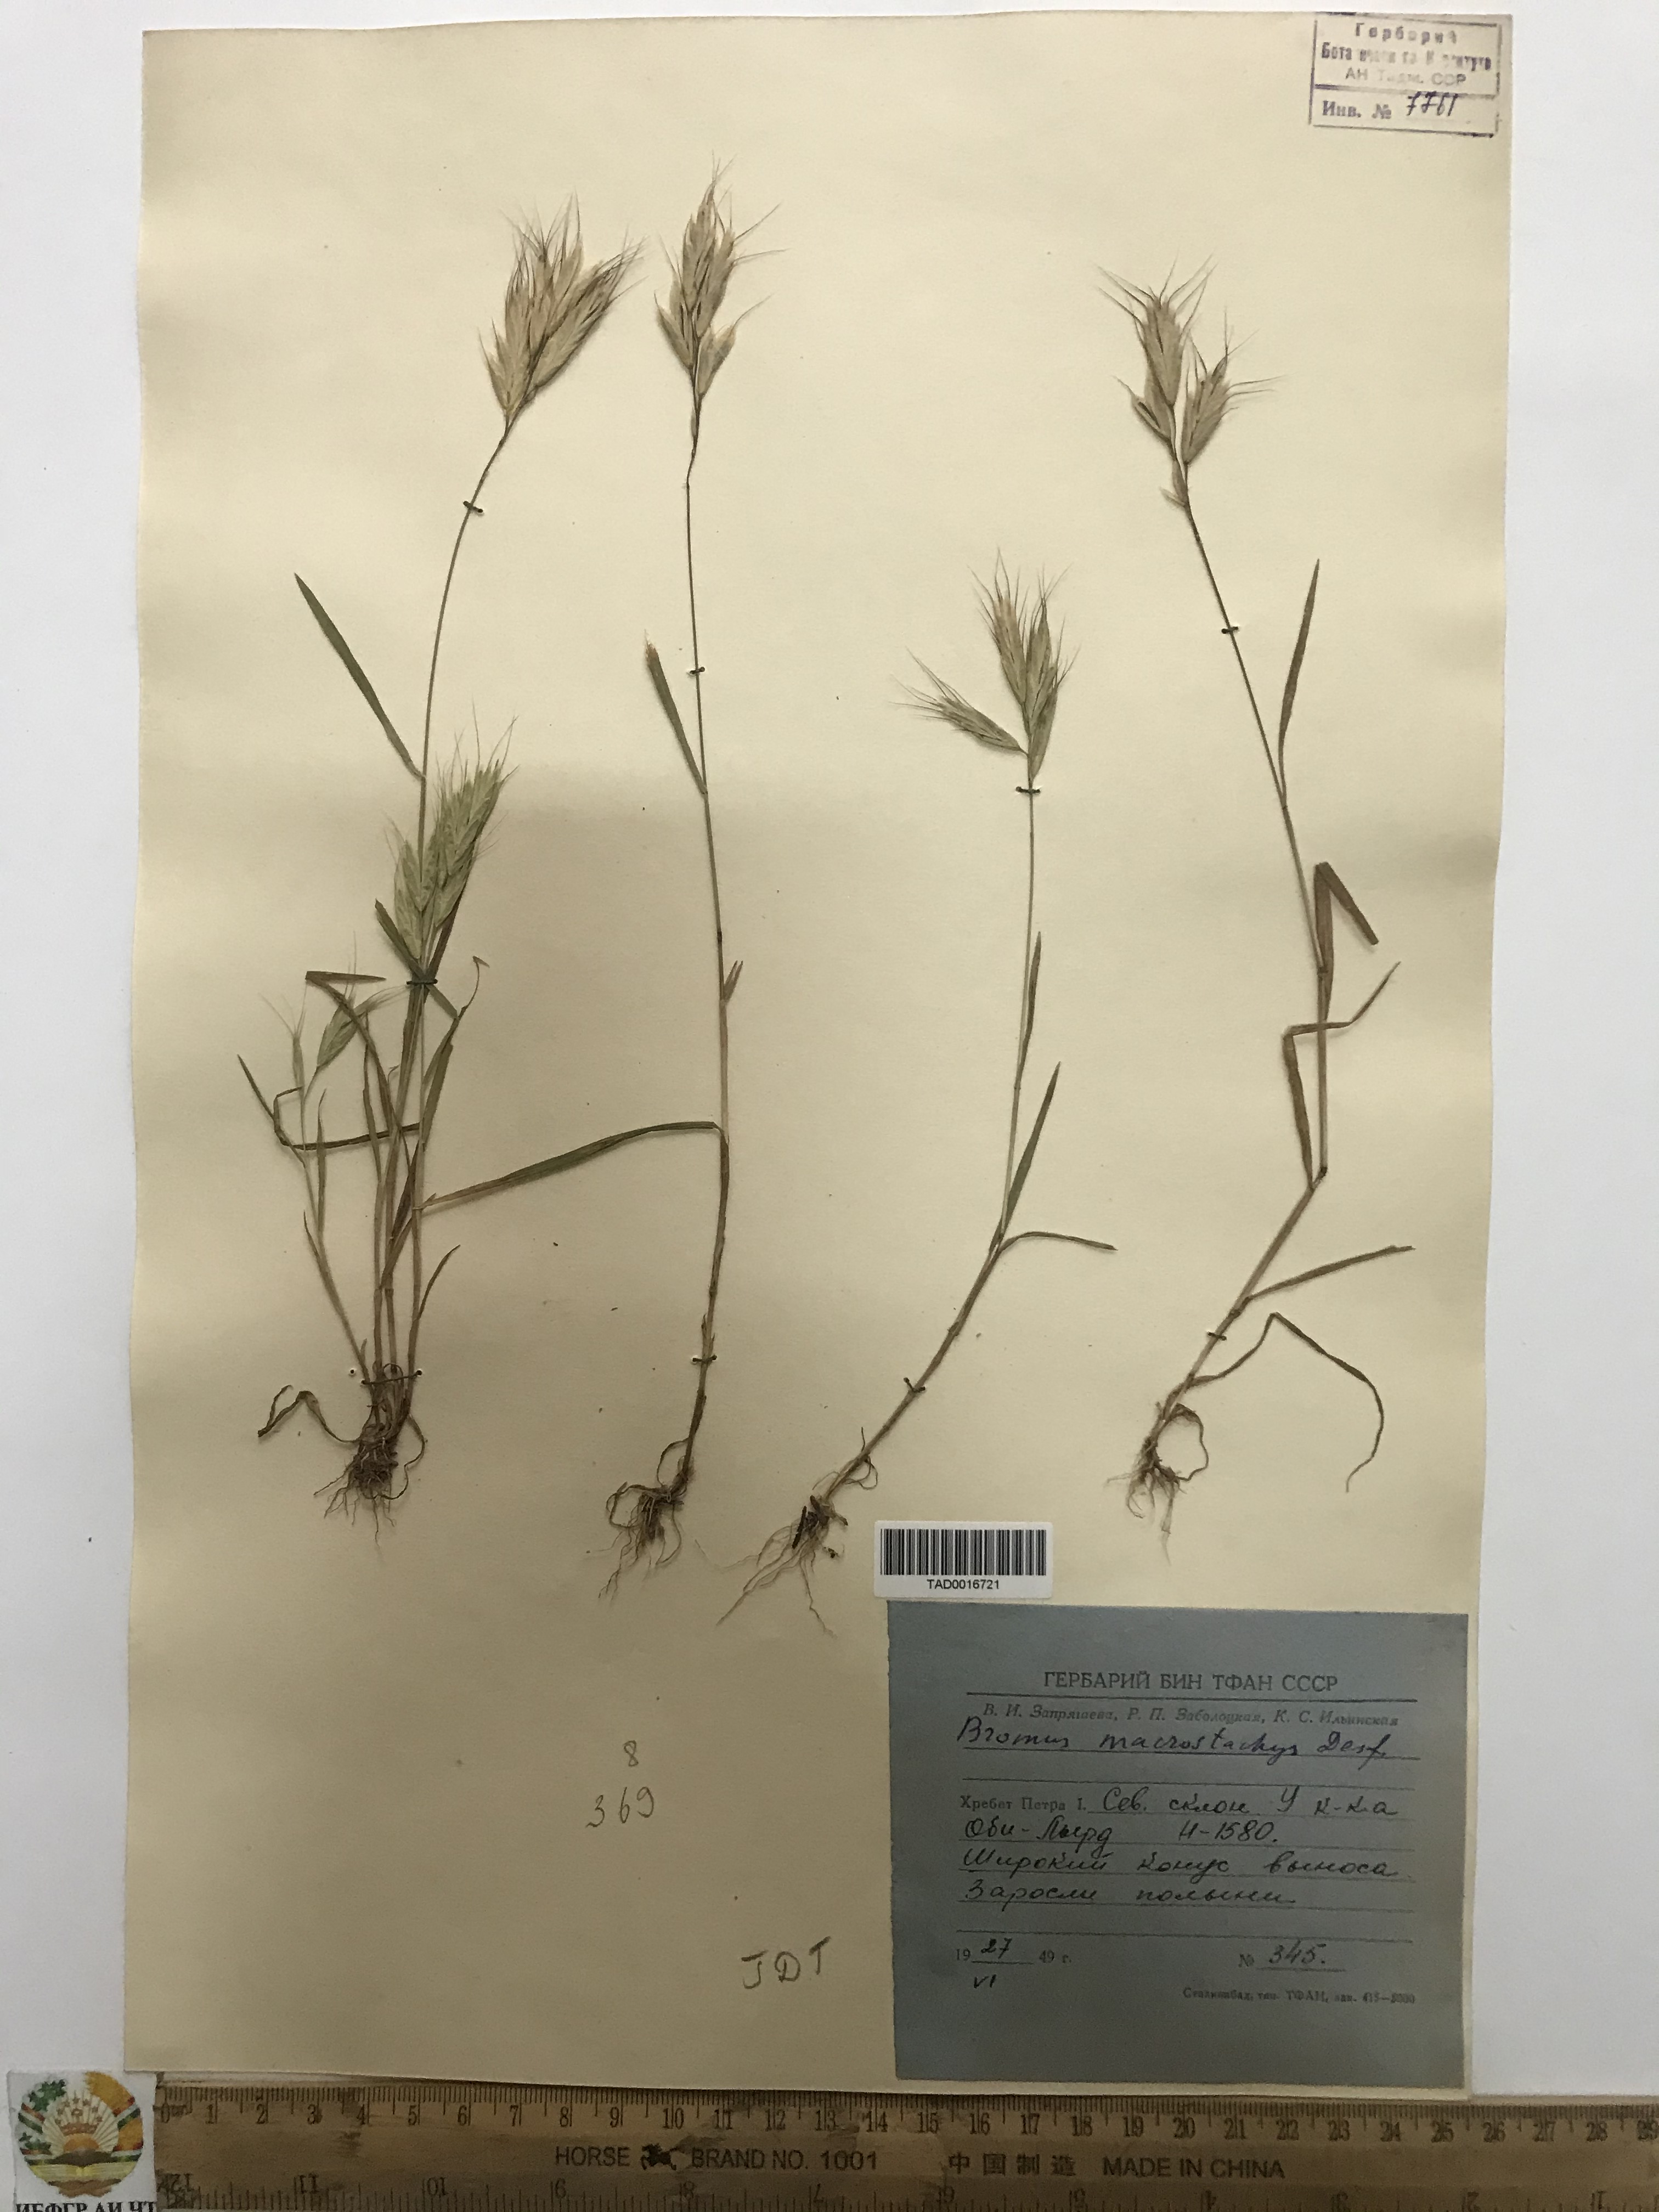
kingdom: Plantae
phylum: Tracheophyta
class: Liliopsida
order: Poales
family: Poaceae
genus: Bromus
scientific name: Bromus lanceolatus
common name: Mediterranean brome
